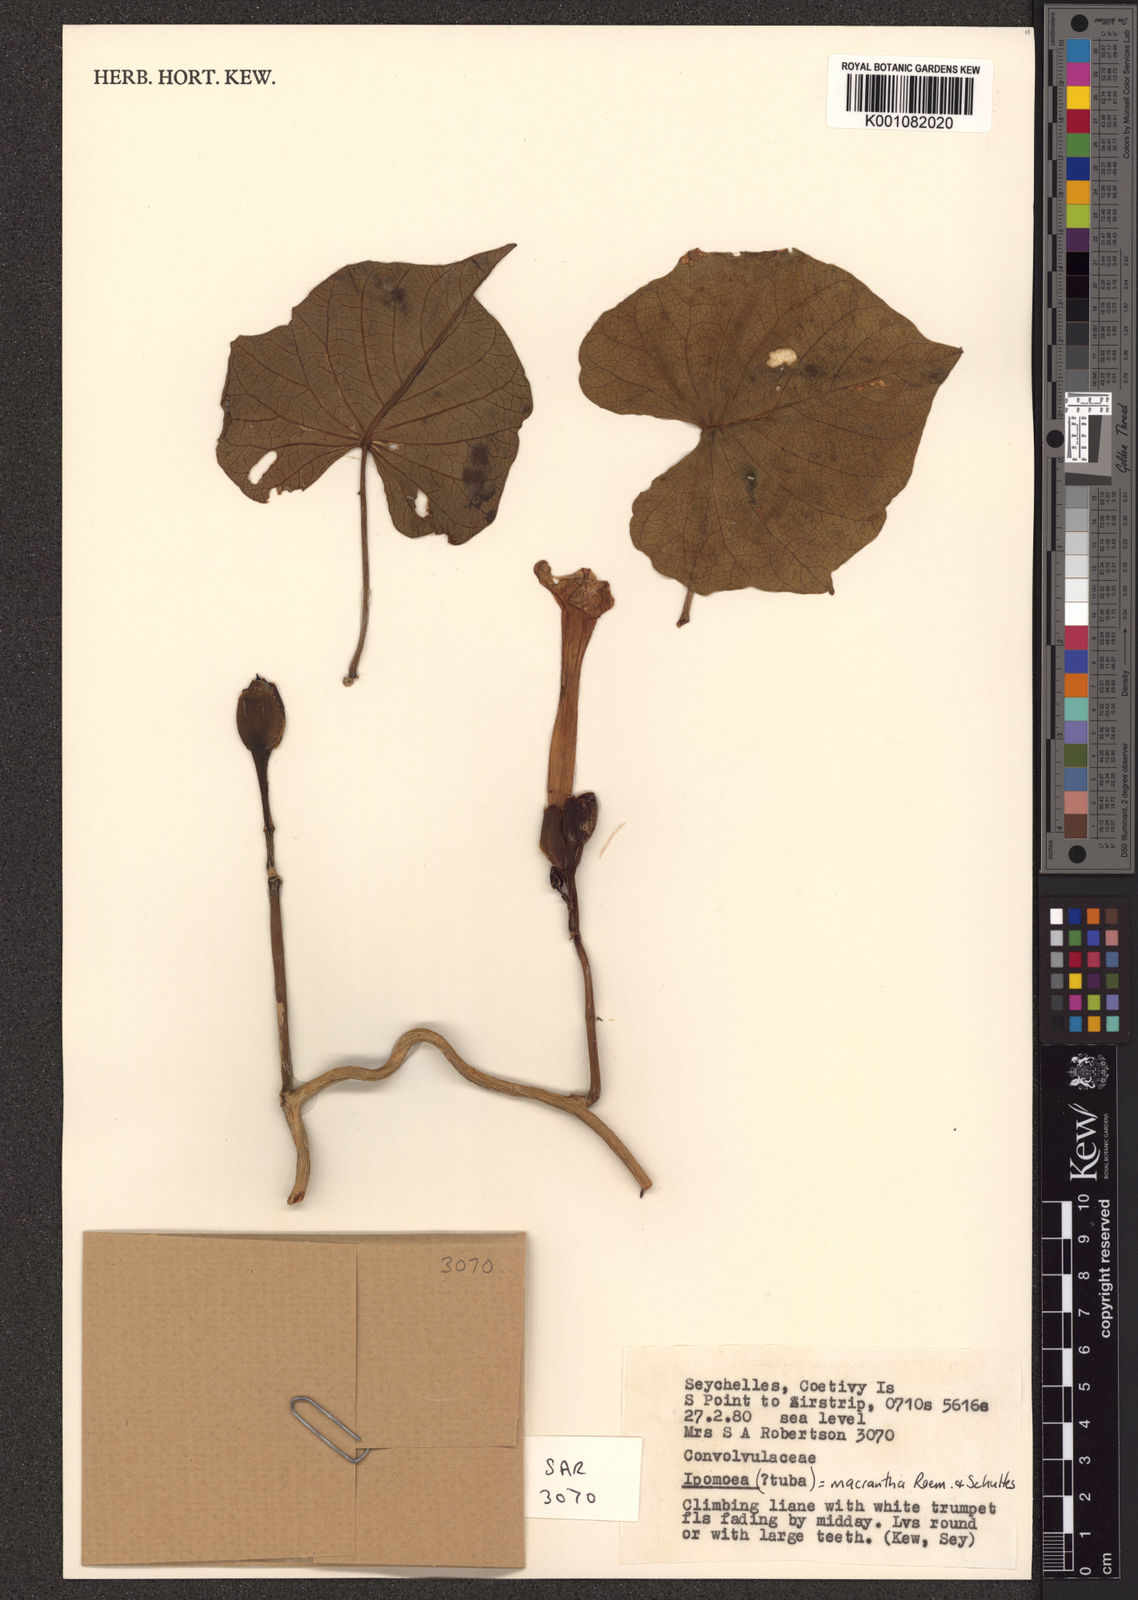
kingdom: Plantae
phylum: Tracheophyta
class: Magnoliopsida
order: Solanales
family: Convolvulaceae
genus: Ipomoea
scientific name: Ipomoea violacea
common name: Beach moonflower
